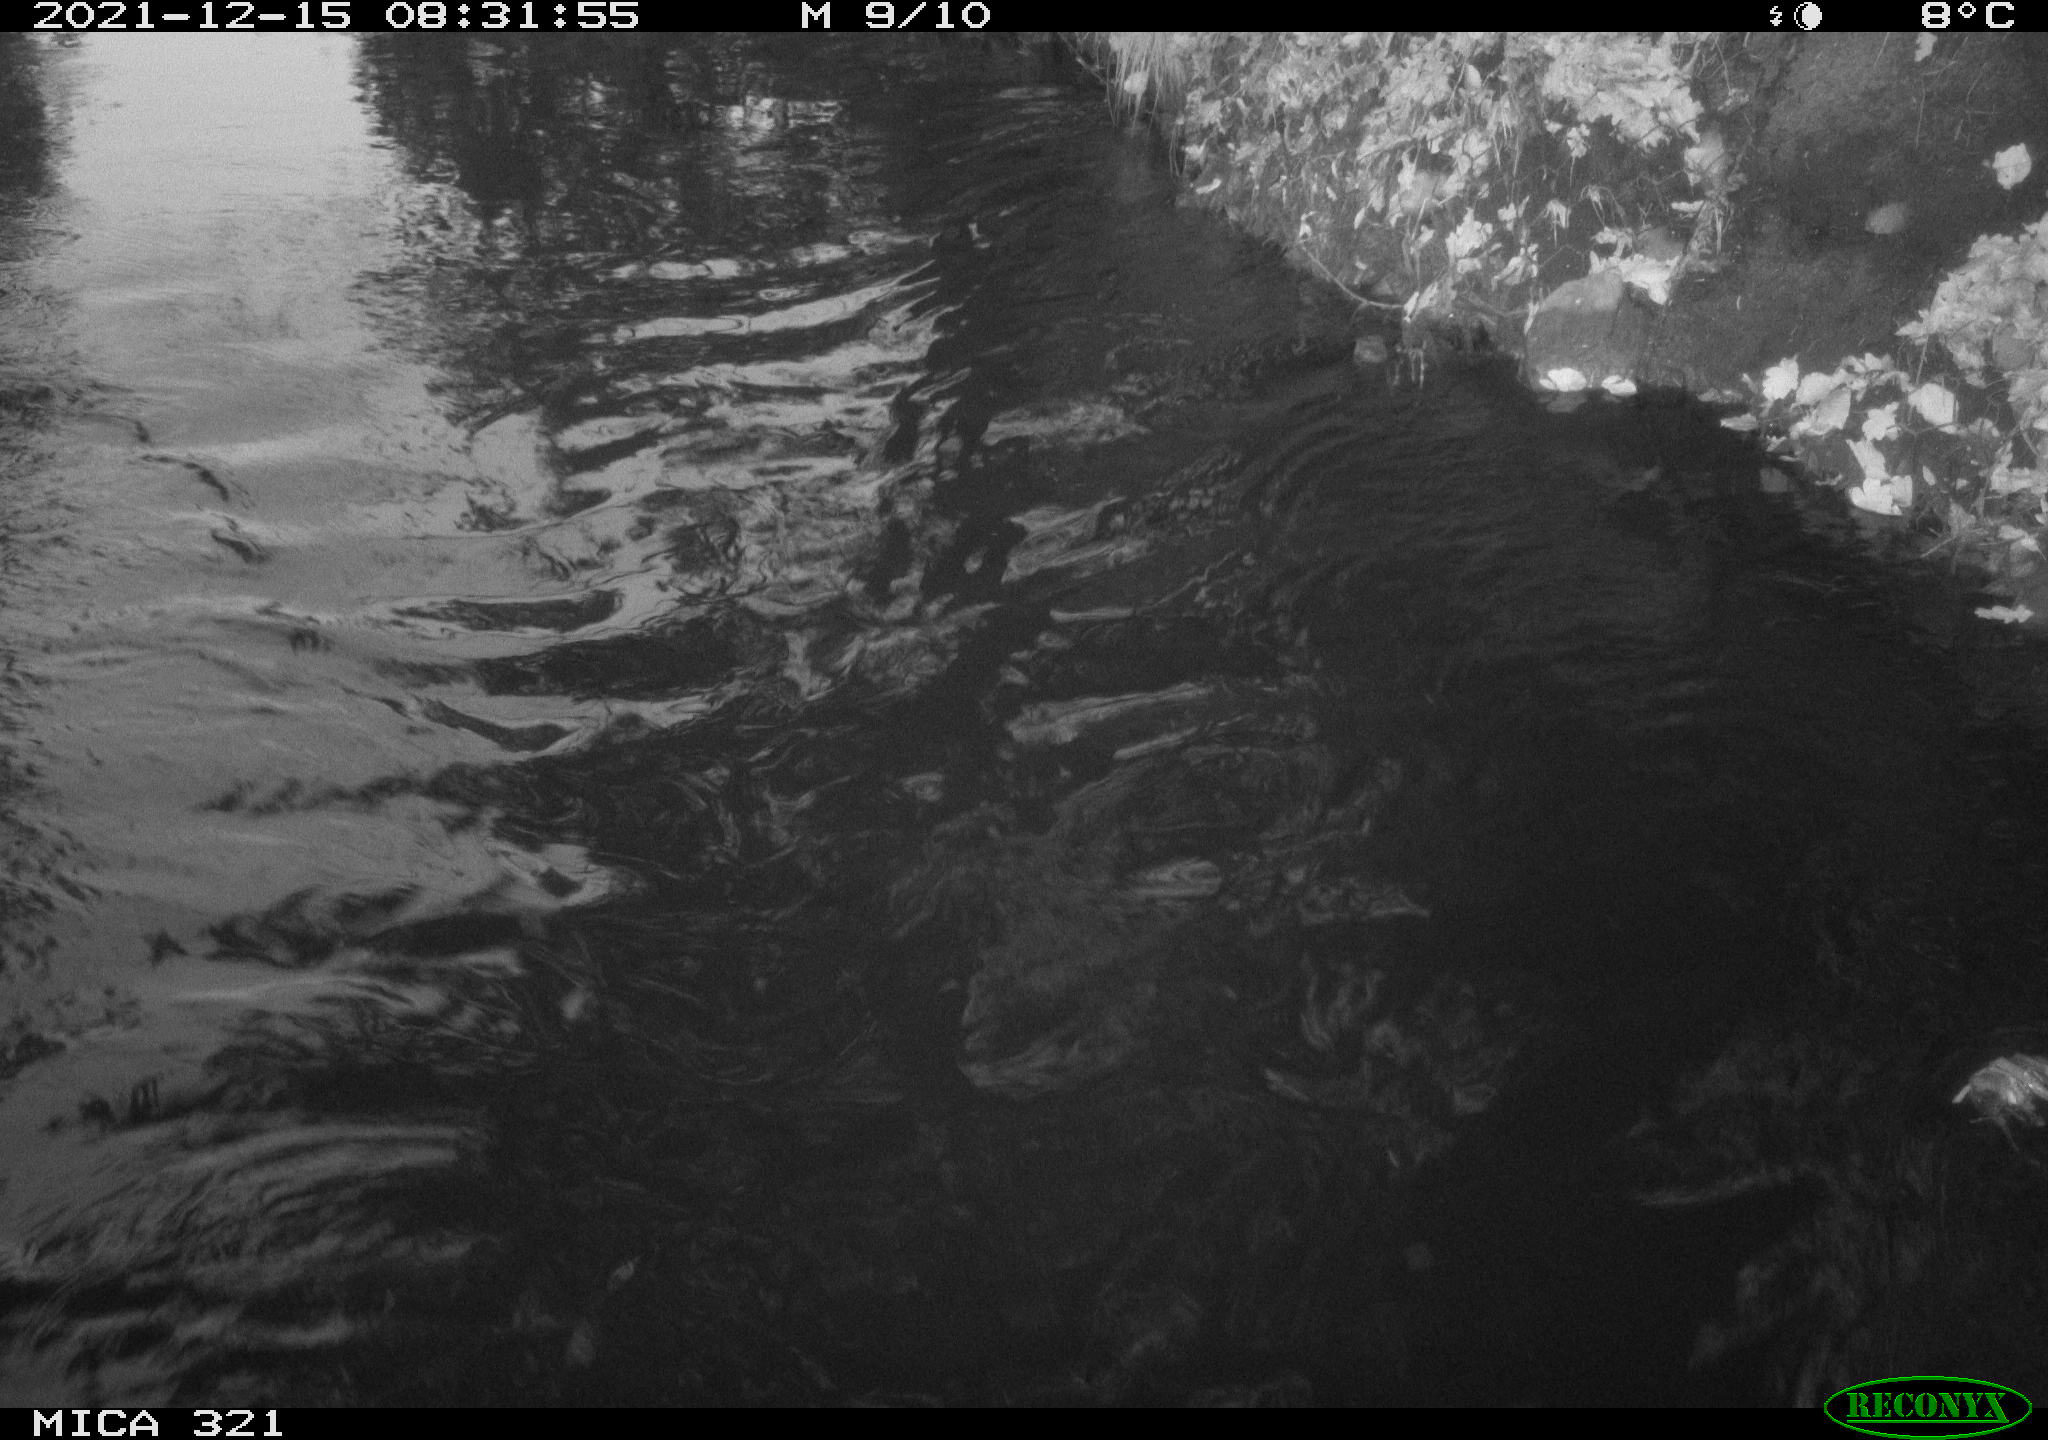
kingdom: Animalia
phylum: Chordata
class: Aves
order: Suliformes
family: Phalacrocoracidae
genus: Phalacrocorax
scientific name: Phalacrocorax carbo
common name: Great cormorant
